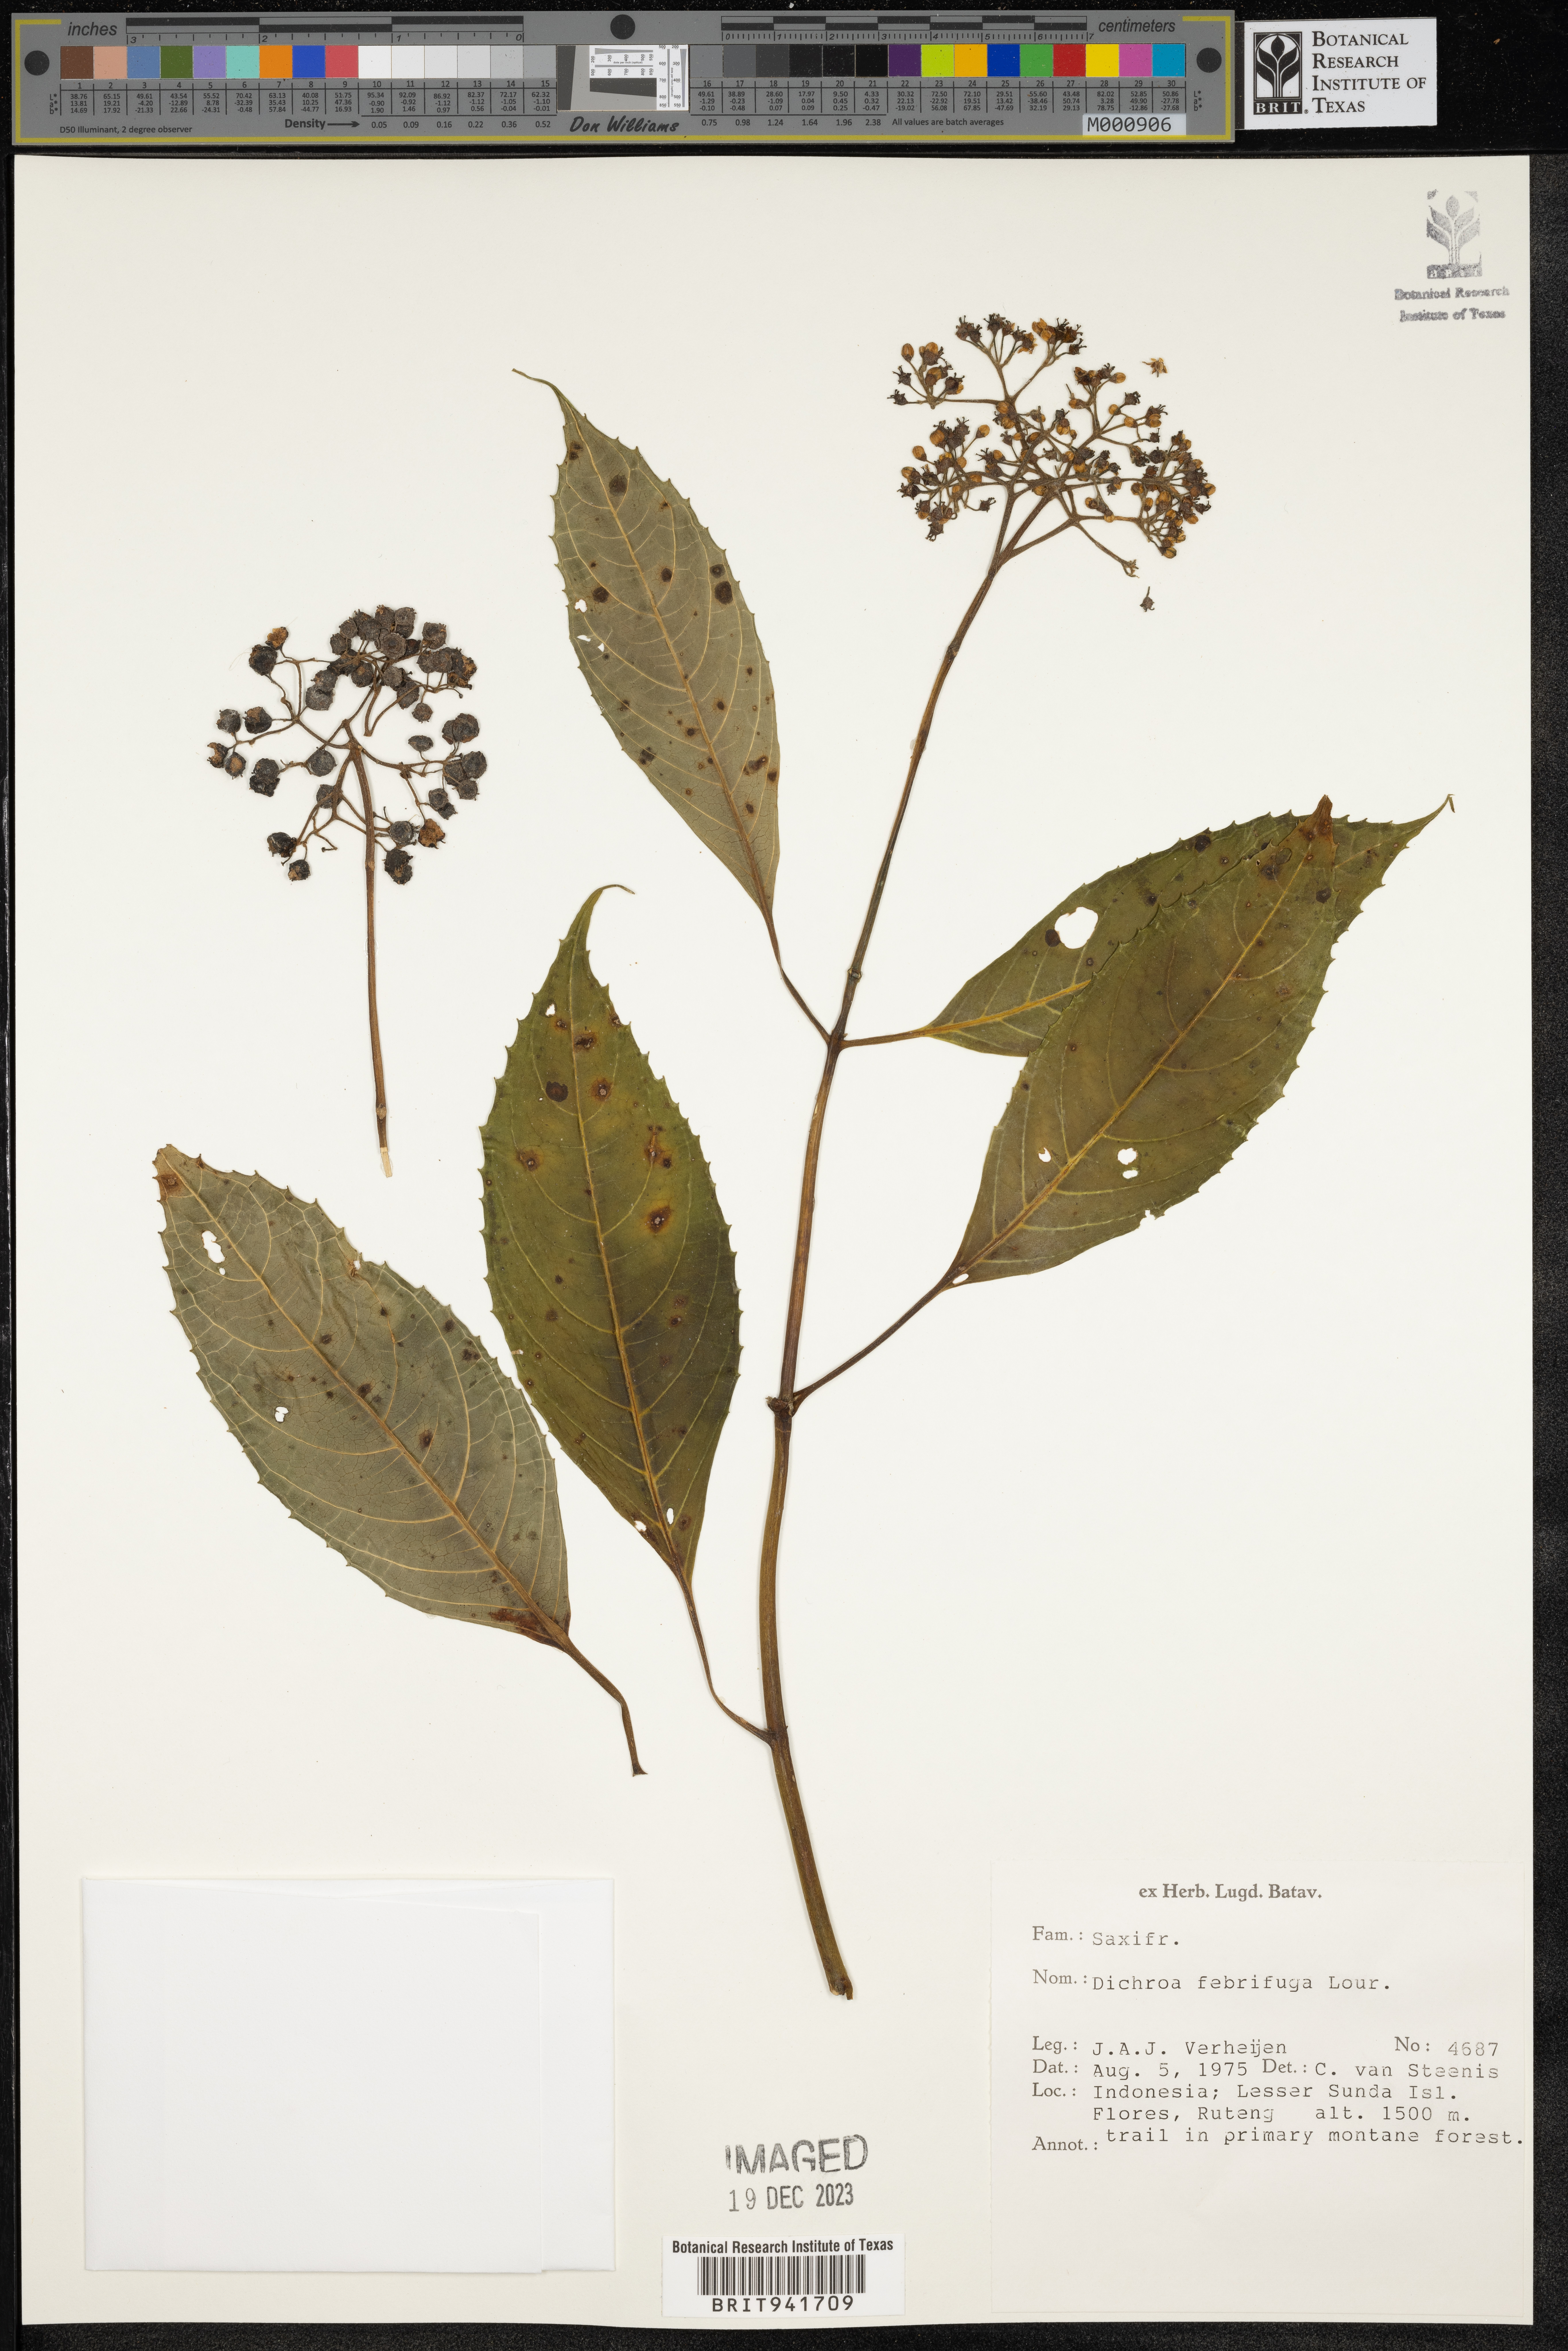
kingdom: Plantae
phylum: Tracheophyta
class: Magnoliopsida
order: Cornales
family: Hydrangeaceae
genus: Hydrangea
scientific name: Hydrangea
